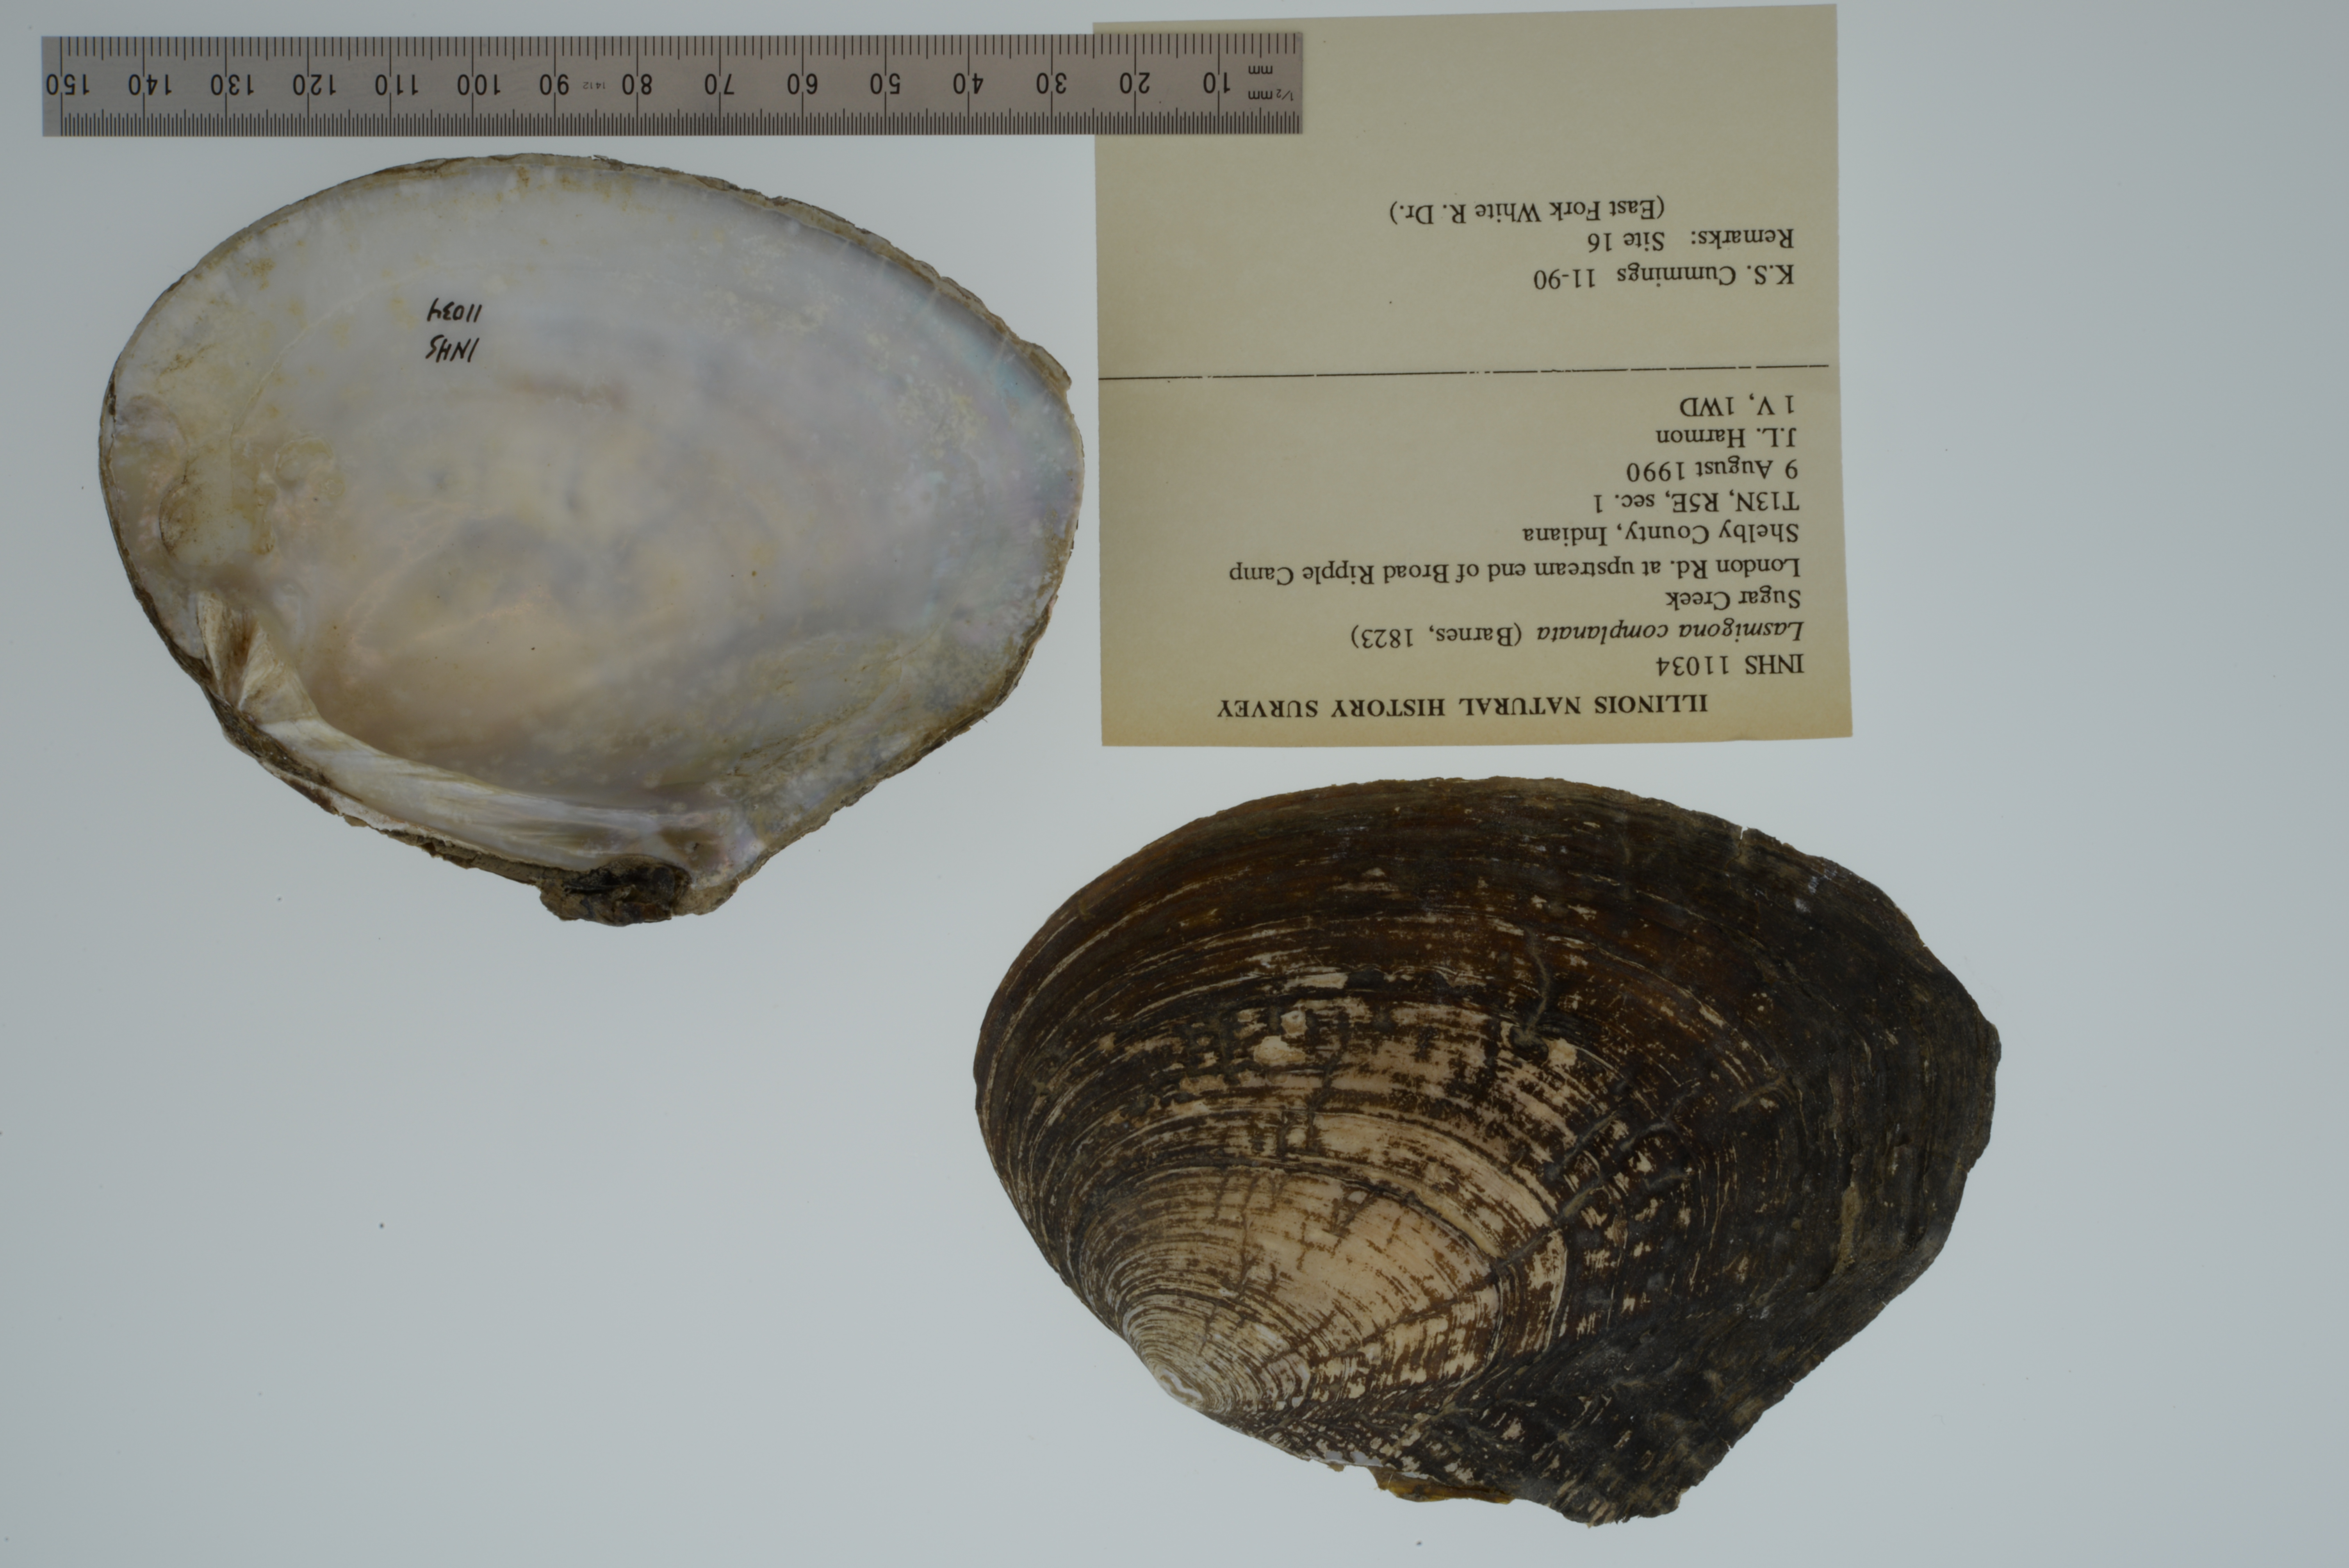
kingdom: Animalia
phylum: Mollusca
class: Bivalvia
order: Unionida
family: Unionidae
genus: Lasmigona
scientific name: Lasmigona complanata
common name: White heelsplitter
